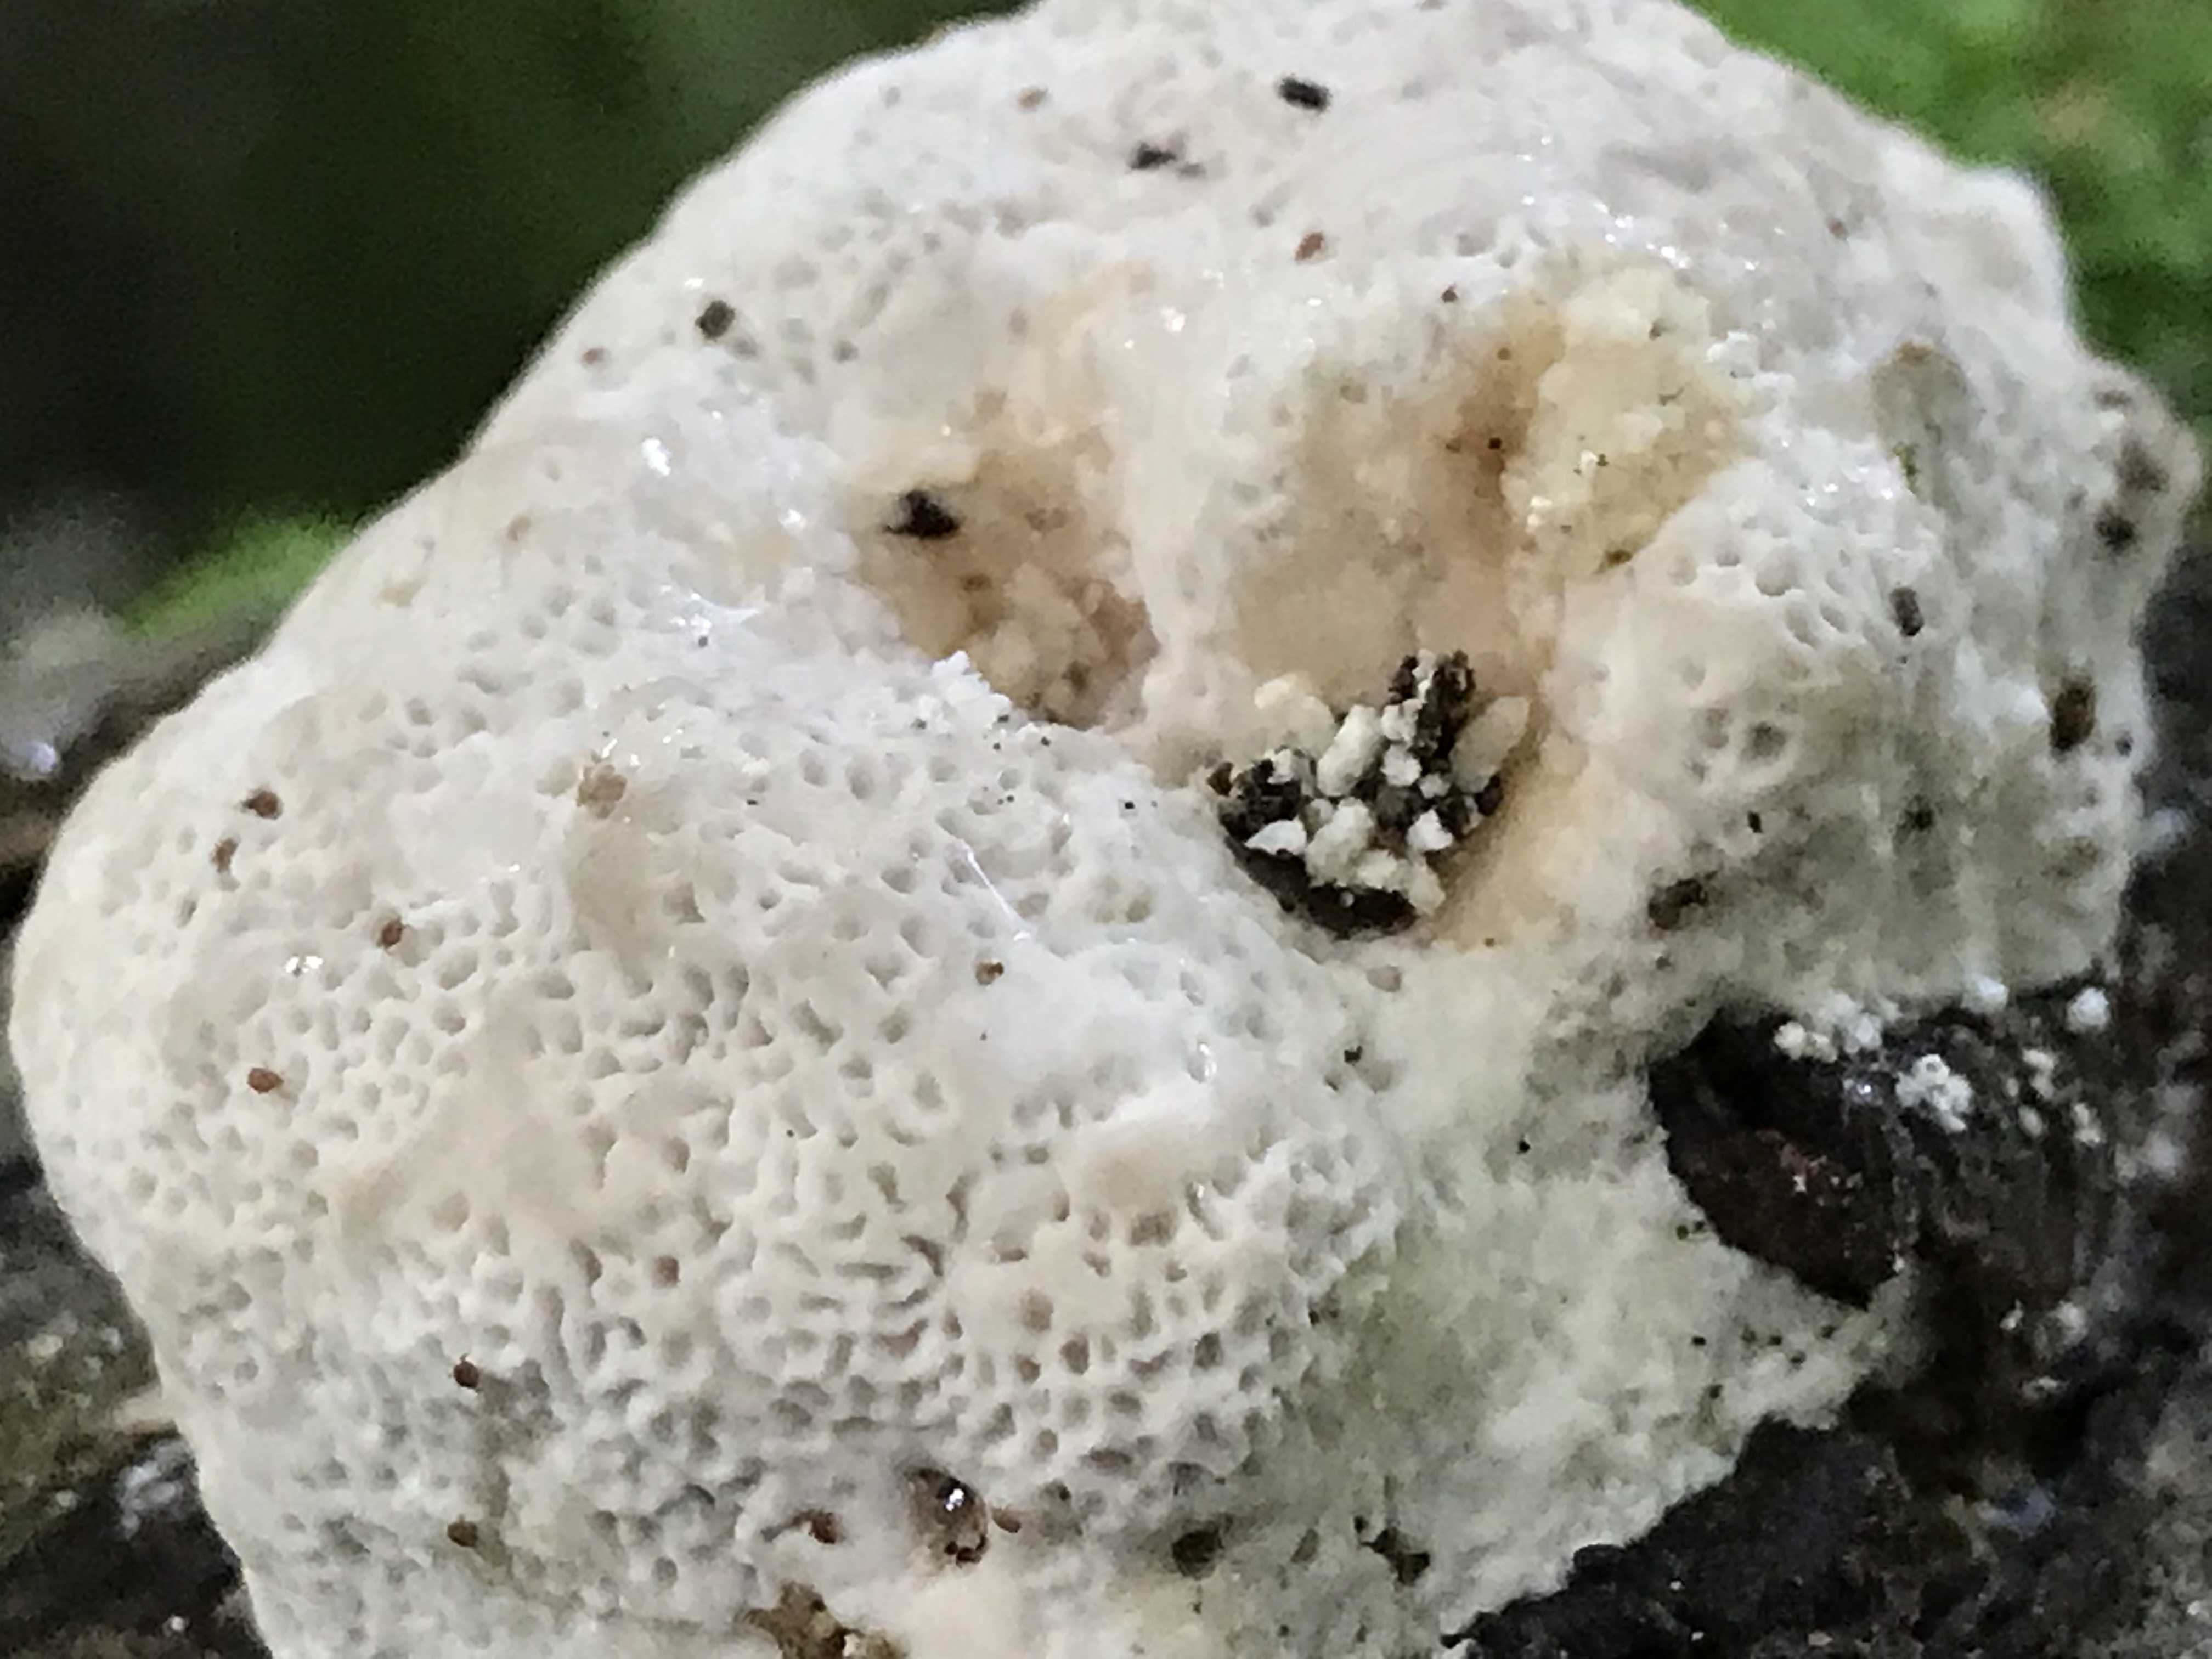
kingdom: Fungi
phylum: Basidiomycota
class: Agaricomycetes
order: Polyporales
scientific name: Polyporales
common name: poresvampordenen
